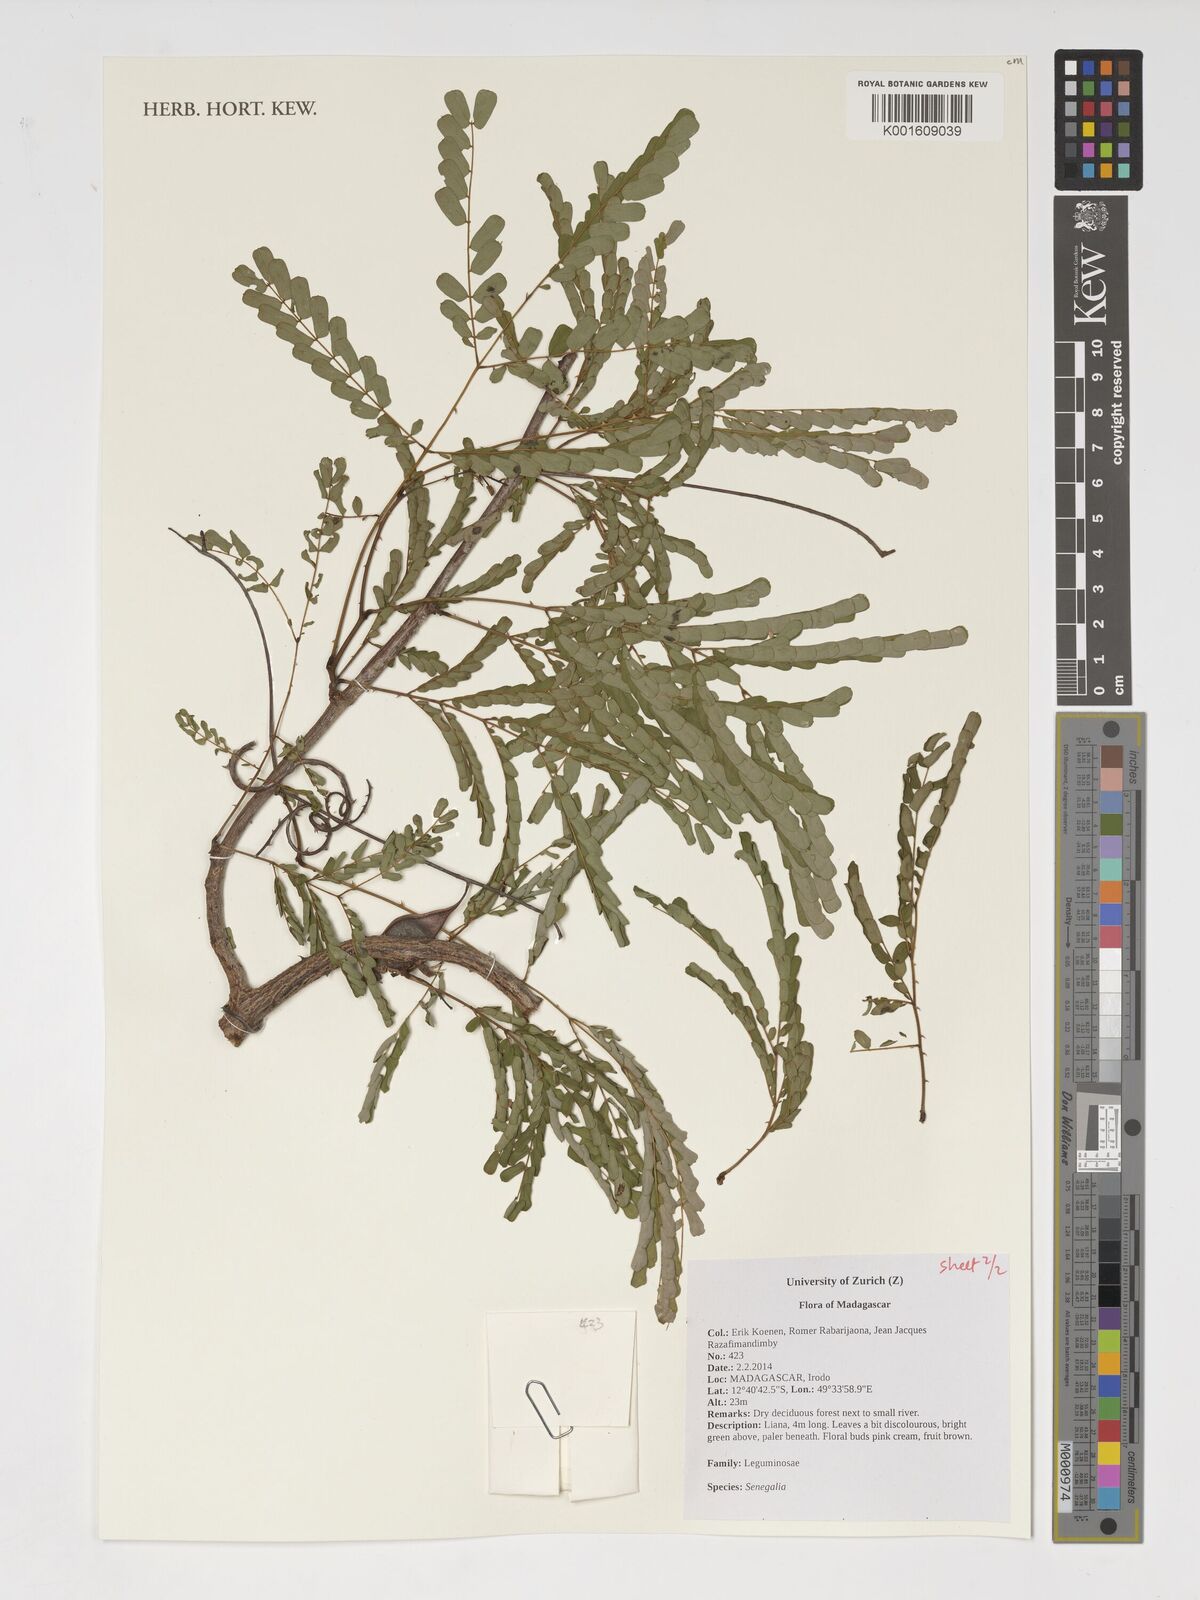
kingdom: Plantae
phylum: Tracheophyta
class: Magnoliopsida
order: Fabales
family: Fabaceae
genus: Senegalia
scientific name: Senegalia
